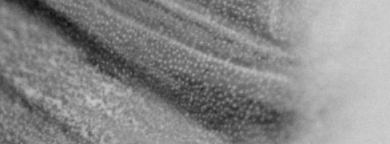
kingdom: Animalia
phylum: Chordata
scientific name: Chordata
